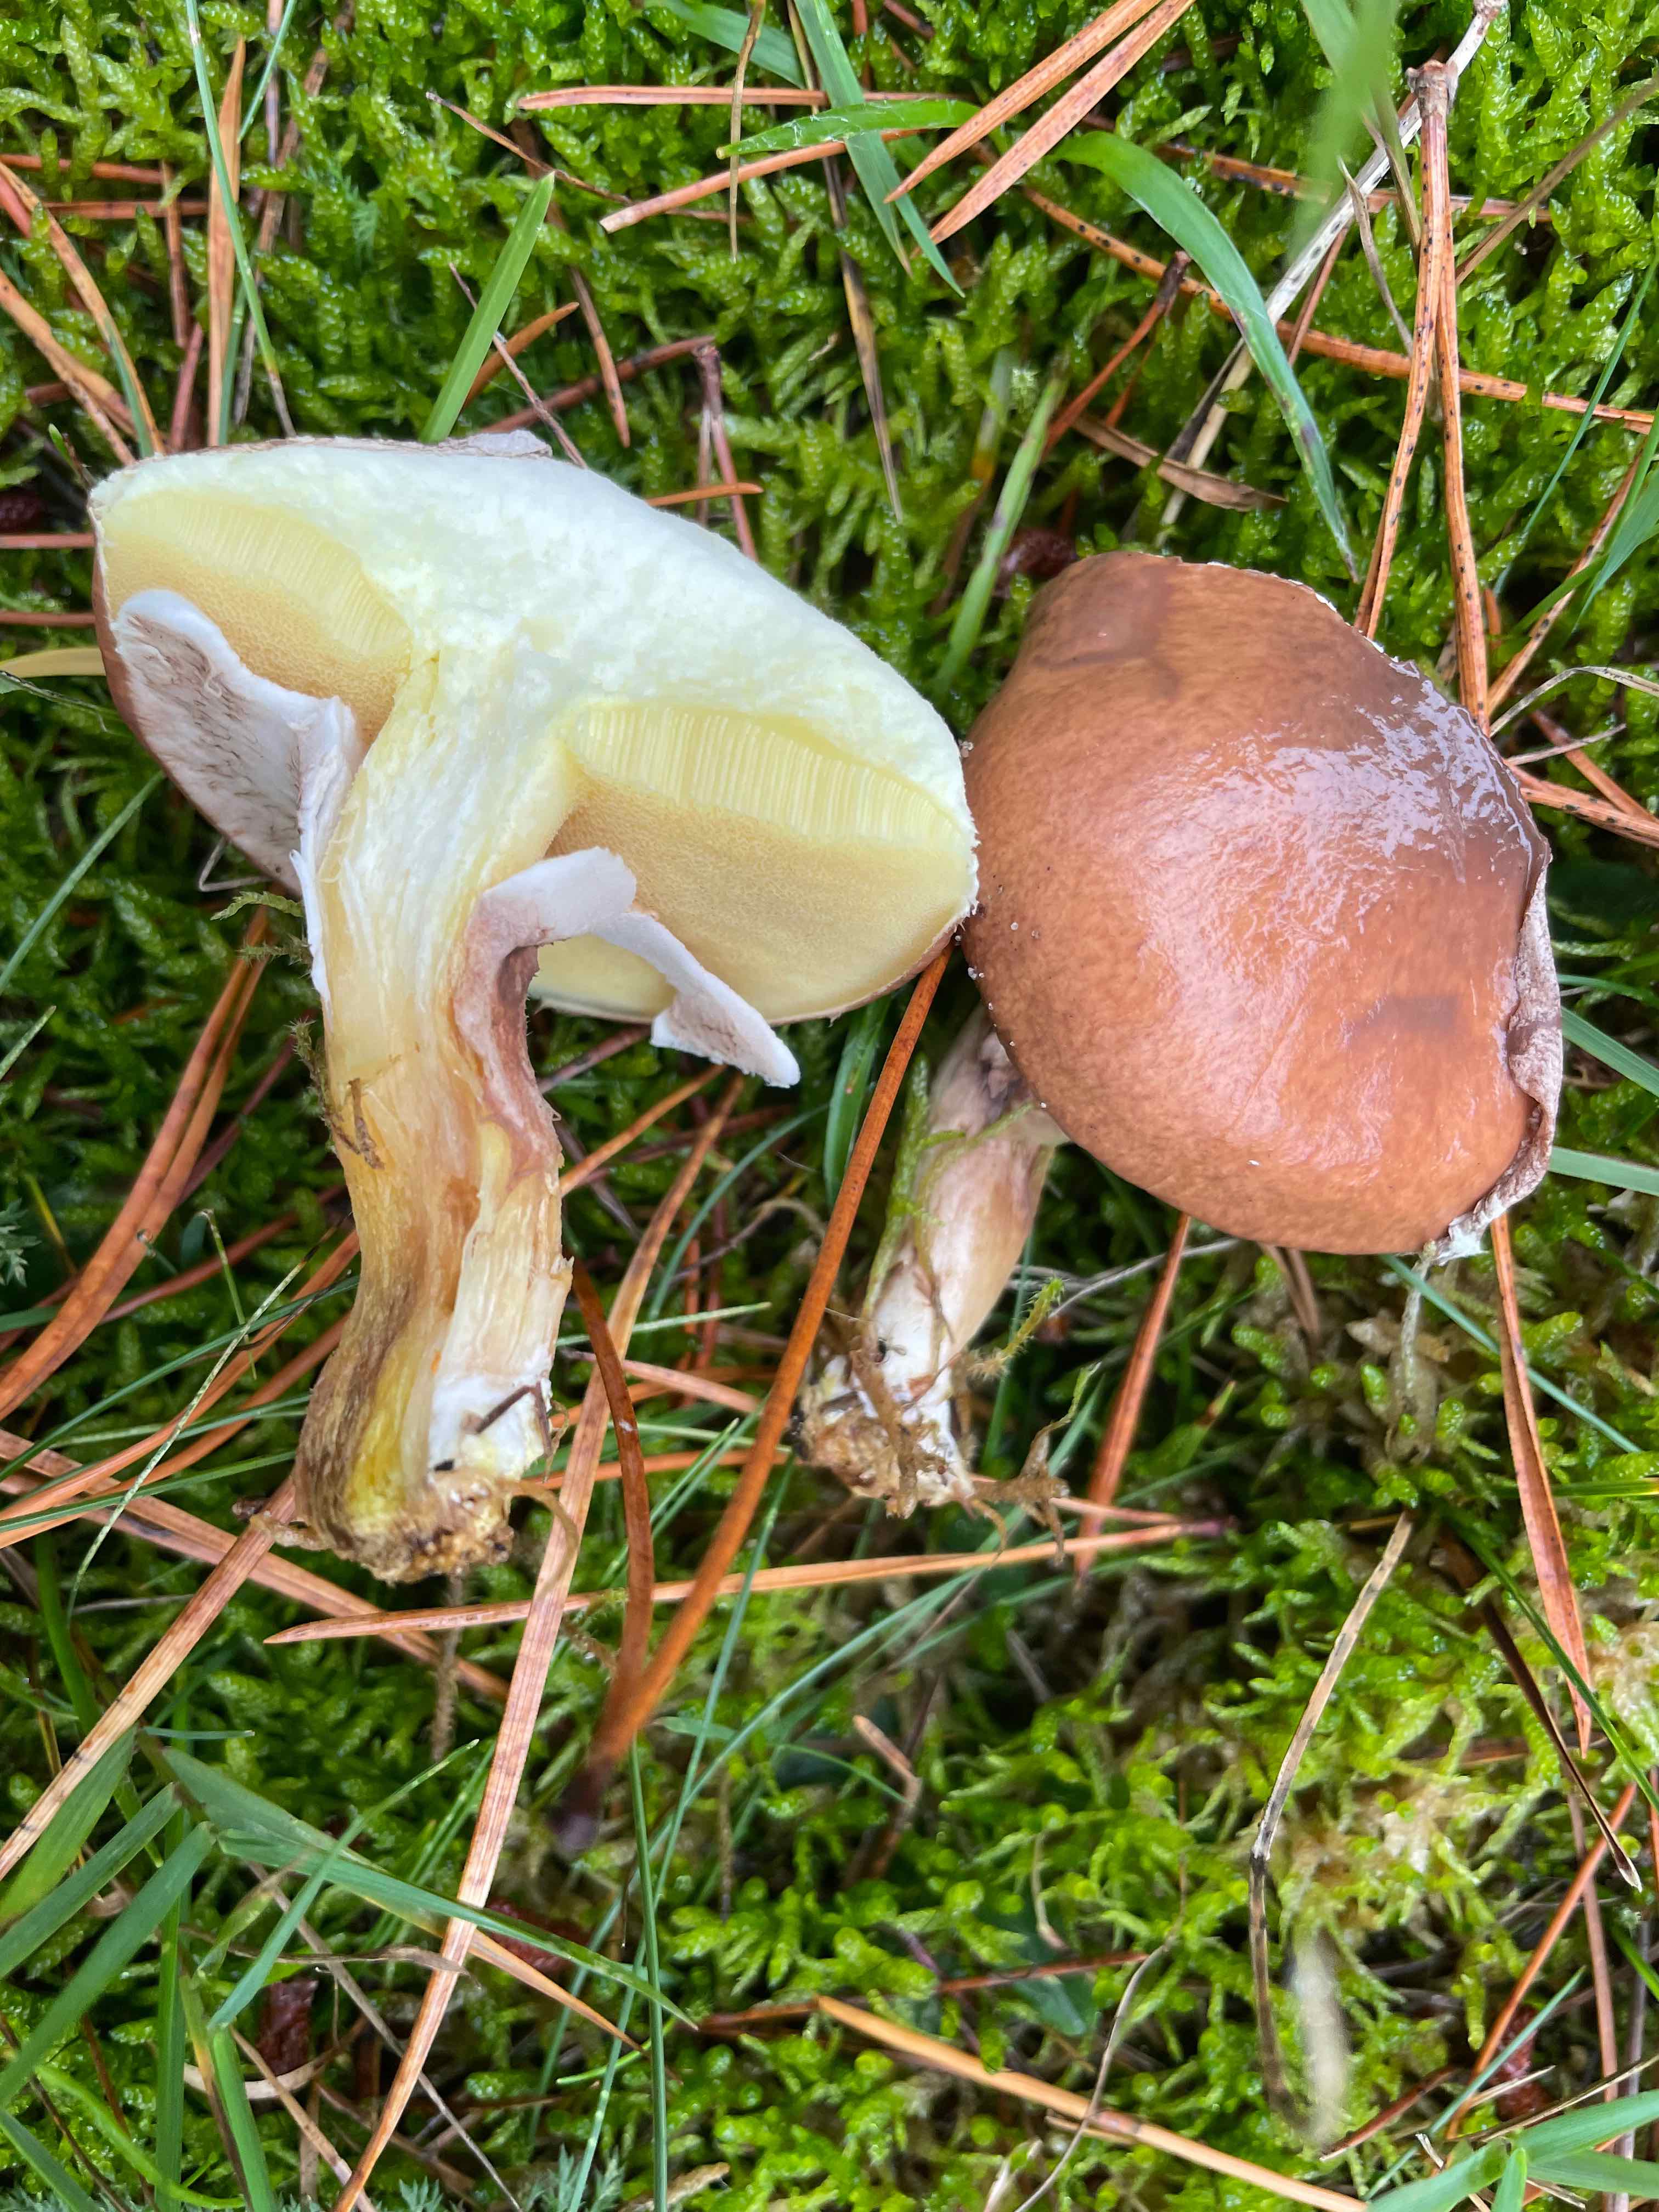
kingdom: Fungi
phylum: Basidiomycota
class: Agaricomycetes
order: Boletales
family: Suillaceae
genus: Suillus
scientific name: Suillus luteus
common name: brungul slimrørhat
